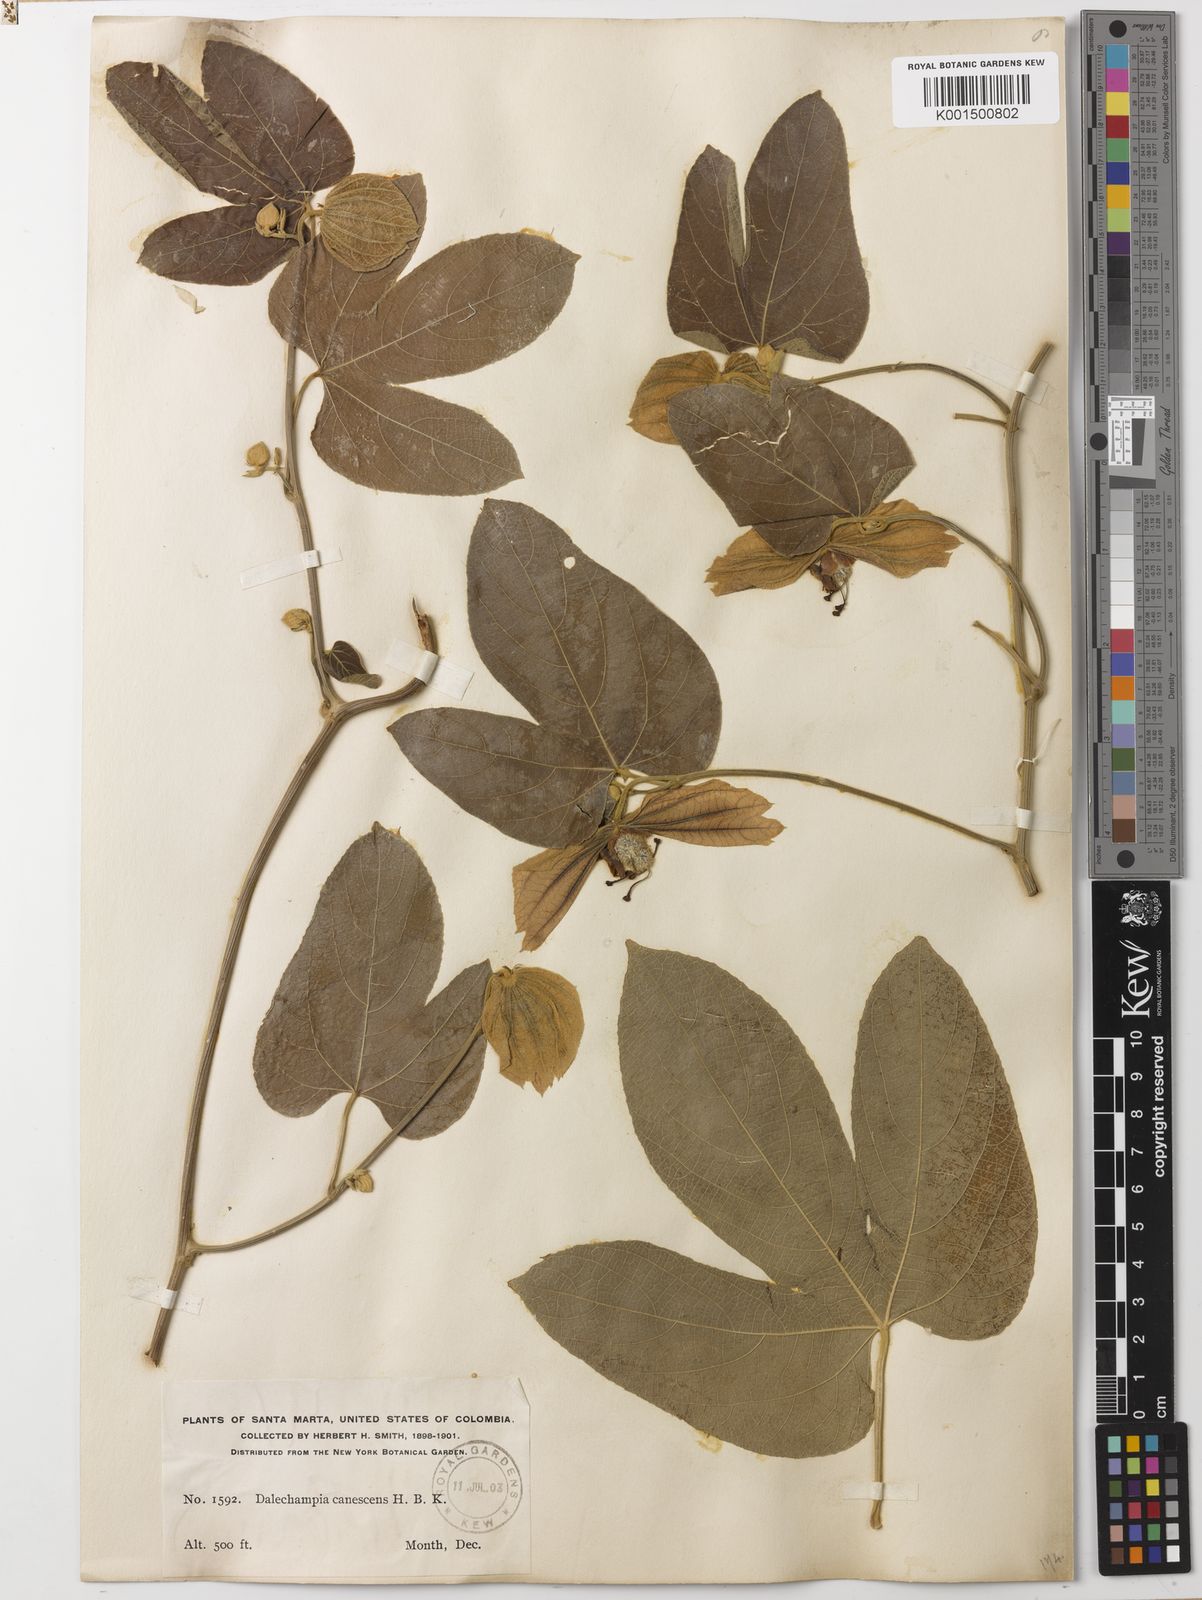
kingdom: Plantae
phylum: Tracheophyta
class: Magnoliopsida
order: Malpighiales
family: Euphorbiaceae
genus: Dalechampia
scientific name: Dalechampia tiliifolia
